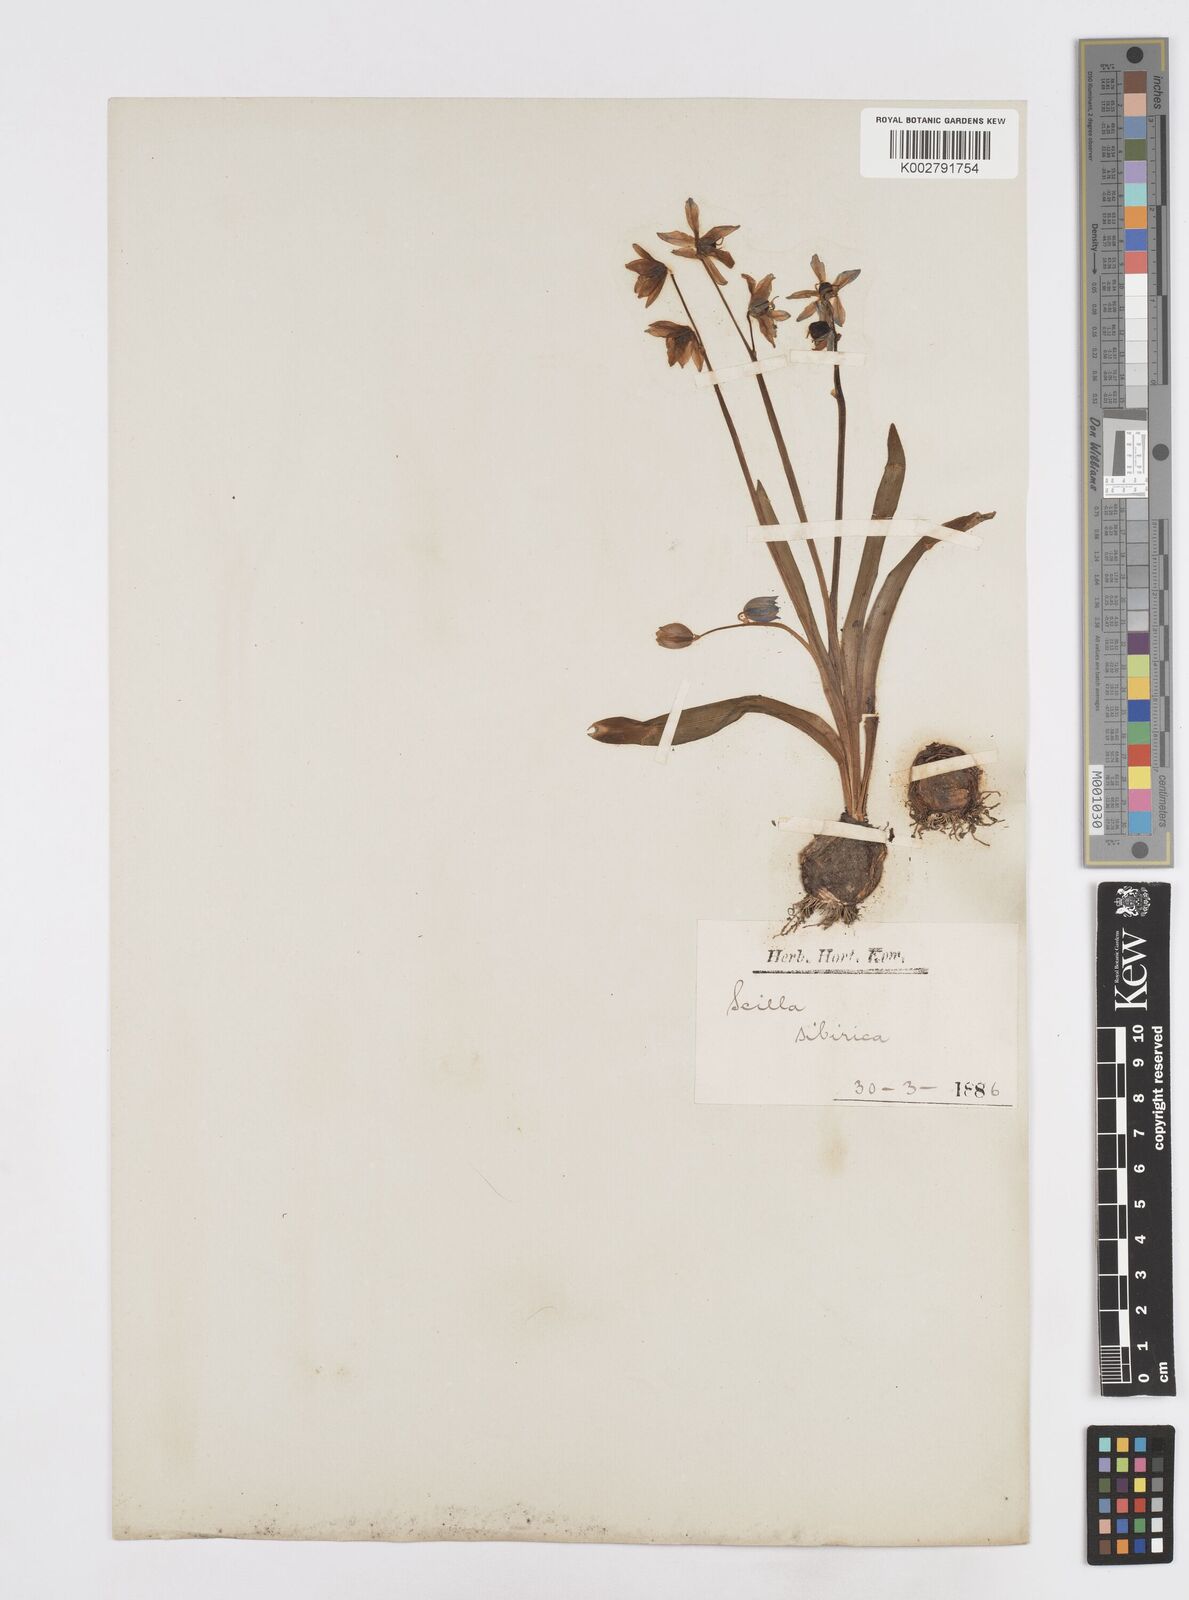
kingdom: Plantae
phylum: Tracheophyta
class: Liliopsida
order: Asparagales
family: Asparagaceae
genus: Scilla
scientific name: Scilla siberica
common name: Siberian squill
